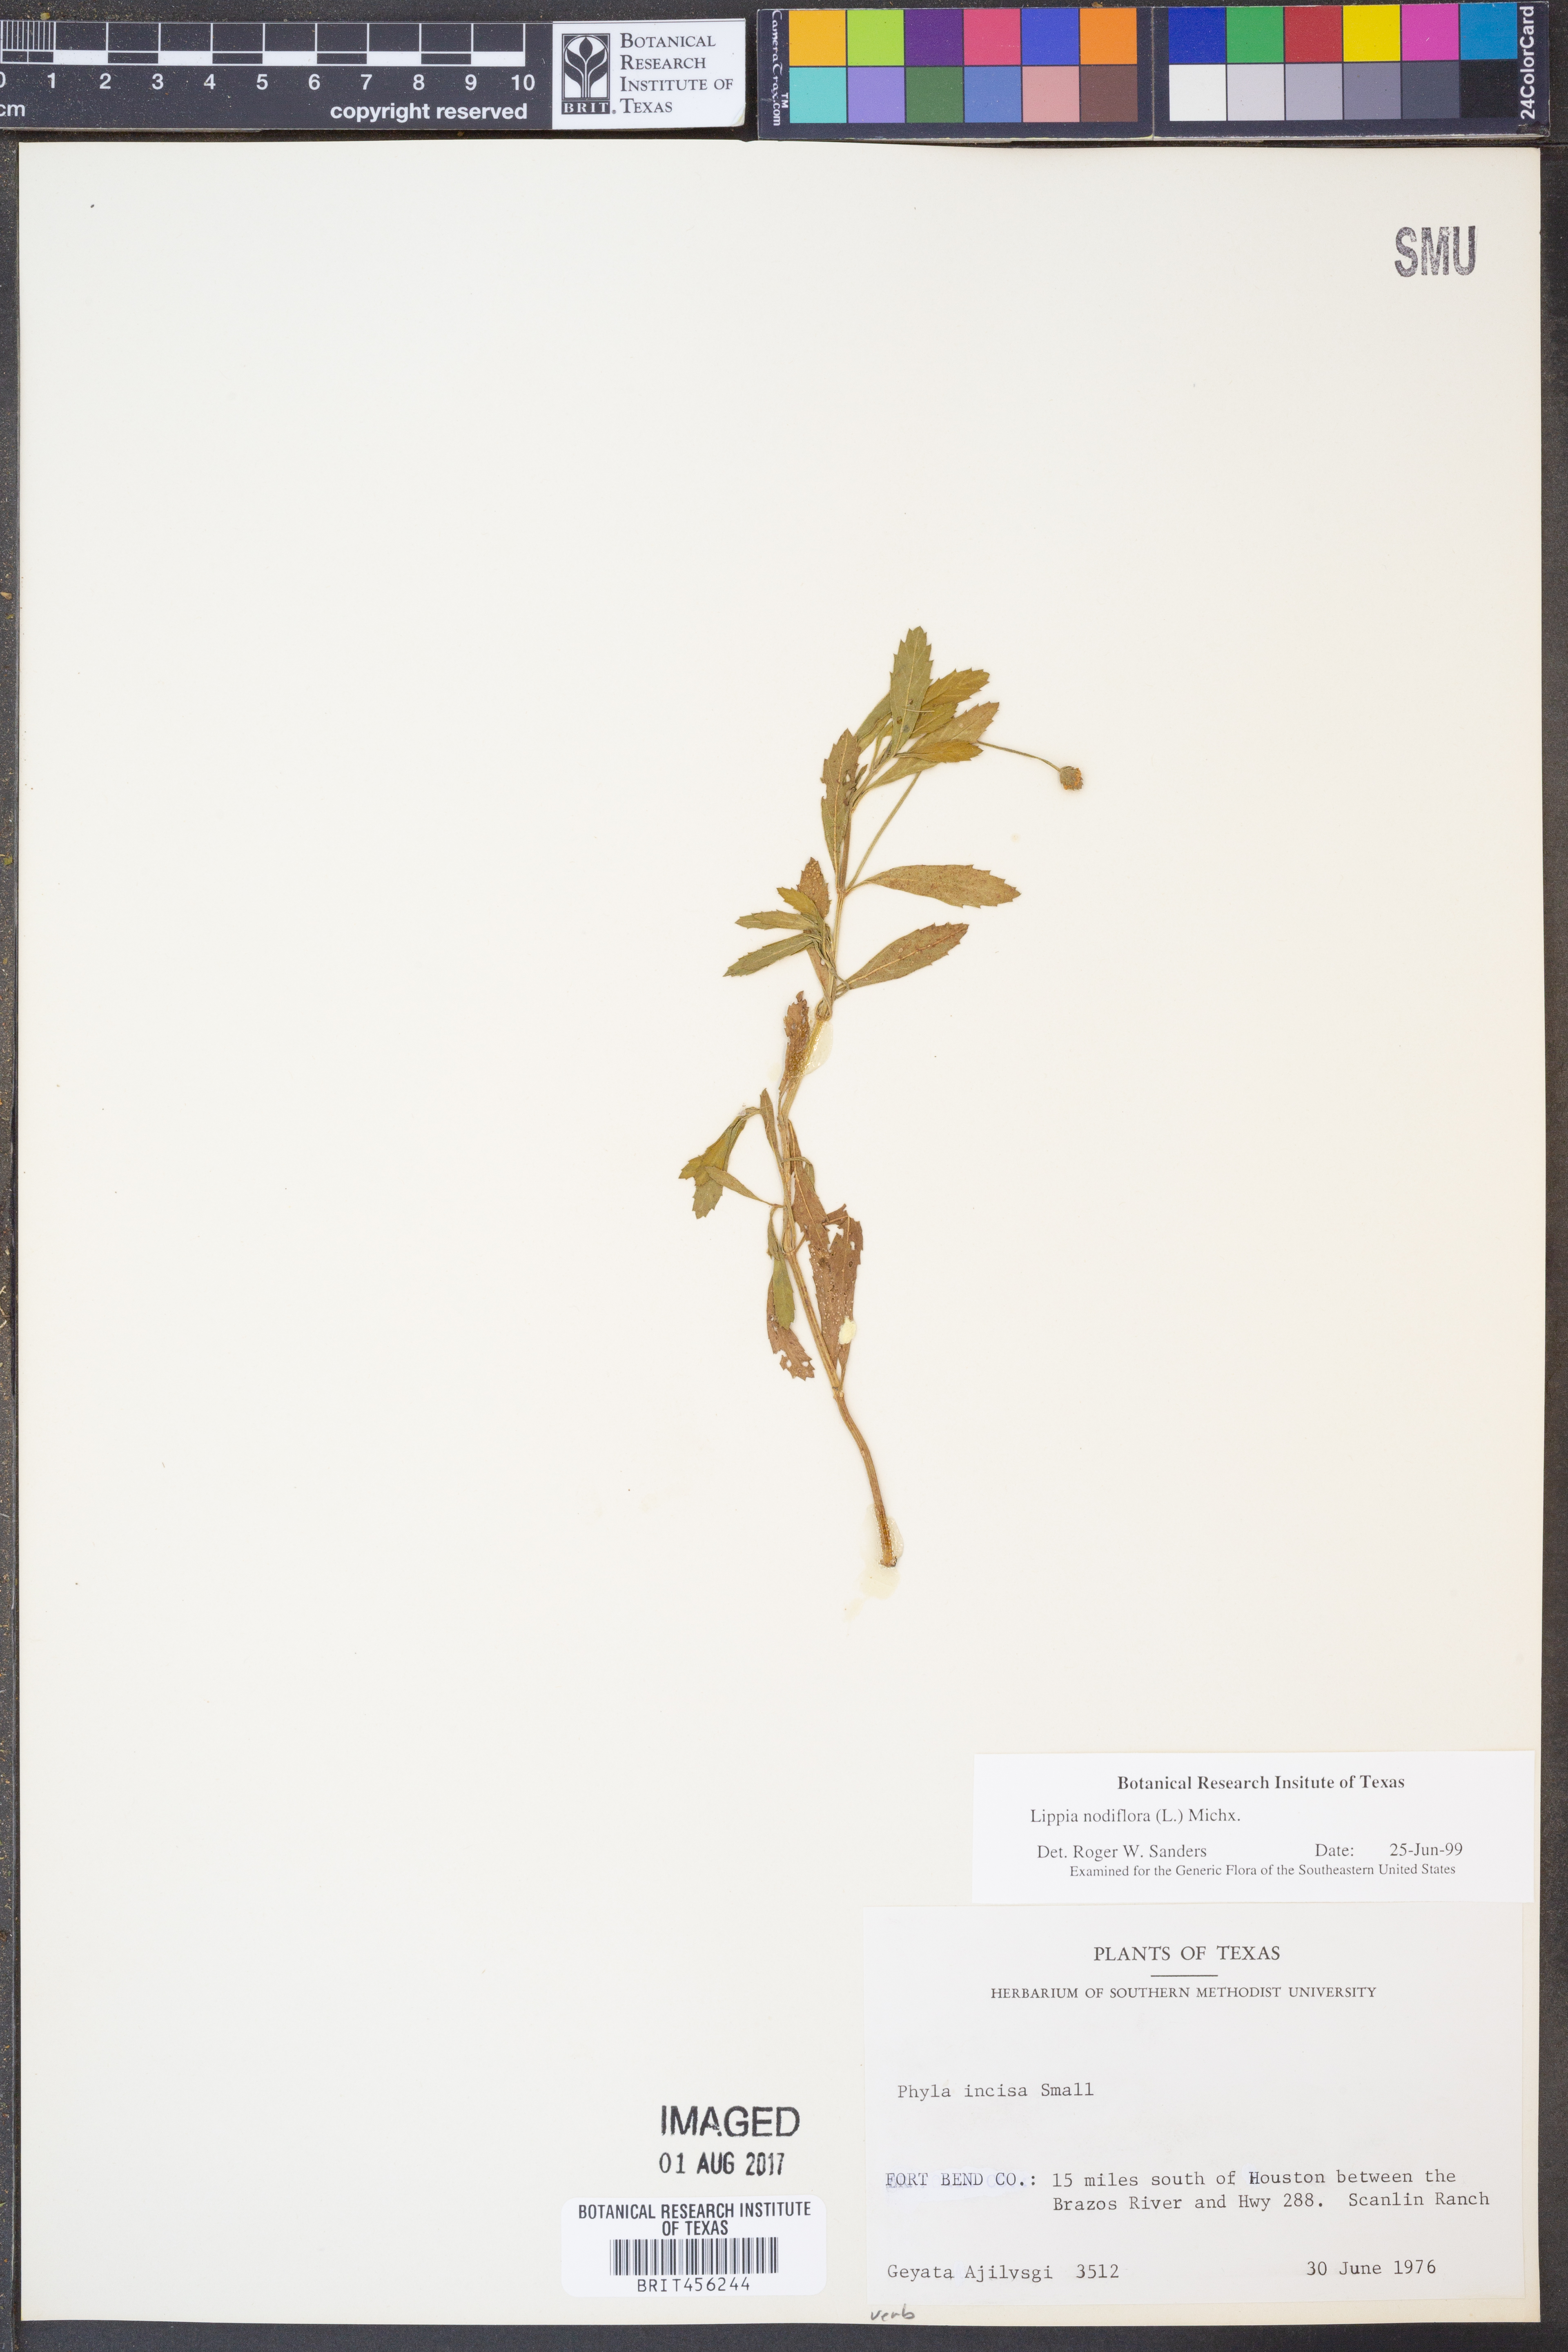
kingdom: Plantae
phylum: Tracheophyta
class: Magnoliopsida
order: Lamiales
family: Verbenaceae
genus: Phyla
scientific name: Phyla nodiflora
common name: Frogfruit
